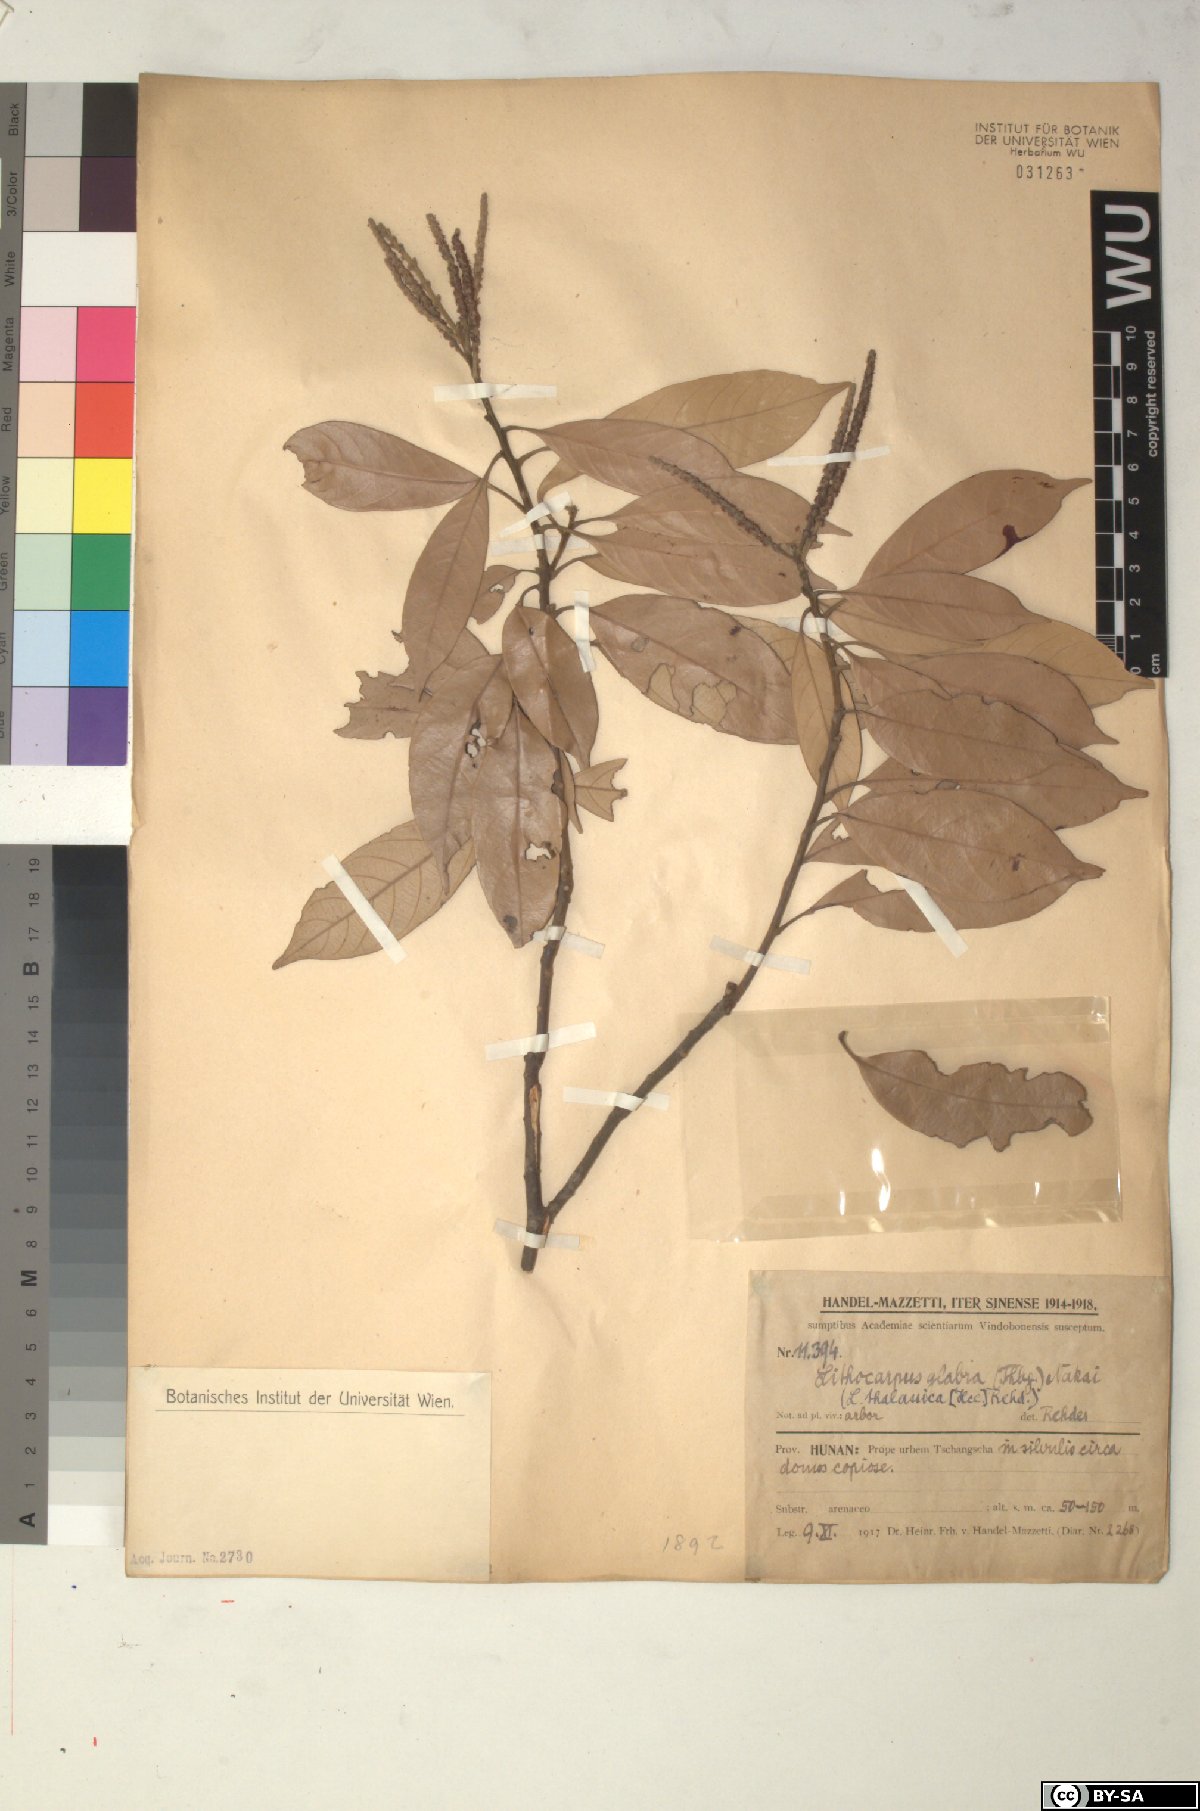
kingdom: Plantae
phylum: Tracheophyta
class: Magnoliopsida
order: Fagales
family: Fagaceae
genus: Lithocarpus
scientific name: Lithocarpus glaber
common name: Japanese-oak
